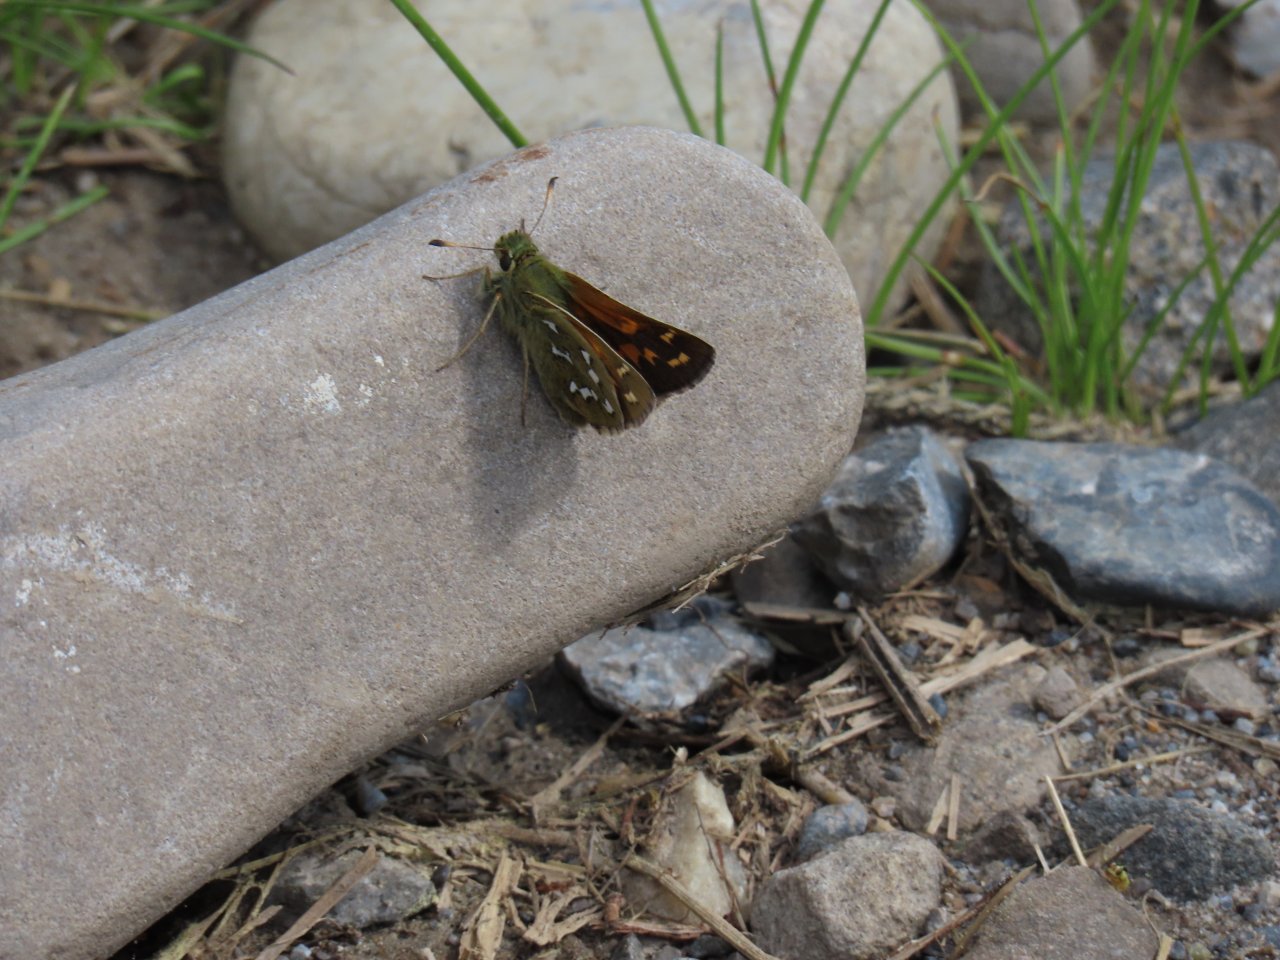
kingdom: Animalia
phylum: Arthropoda
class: Insecta
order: Lepidoptera
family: Hesperiidae
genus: Hesperia
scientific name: Hesperia comma
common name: Common Branded Skipper
